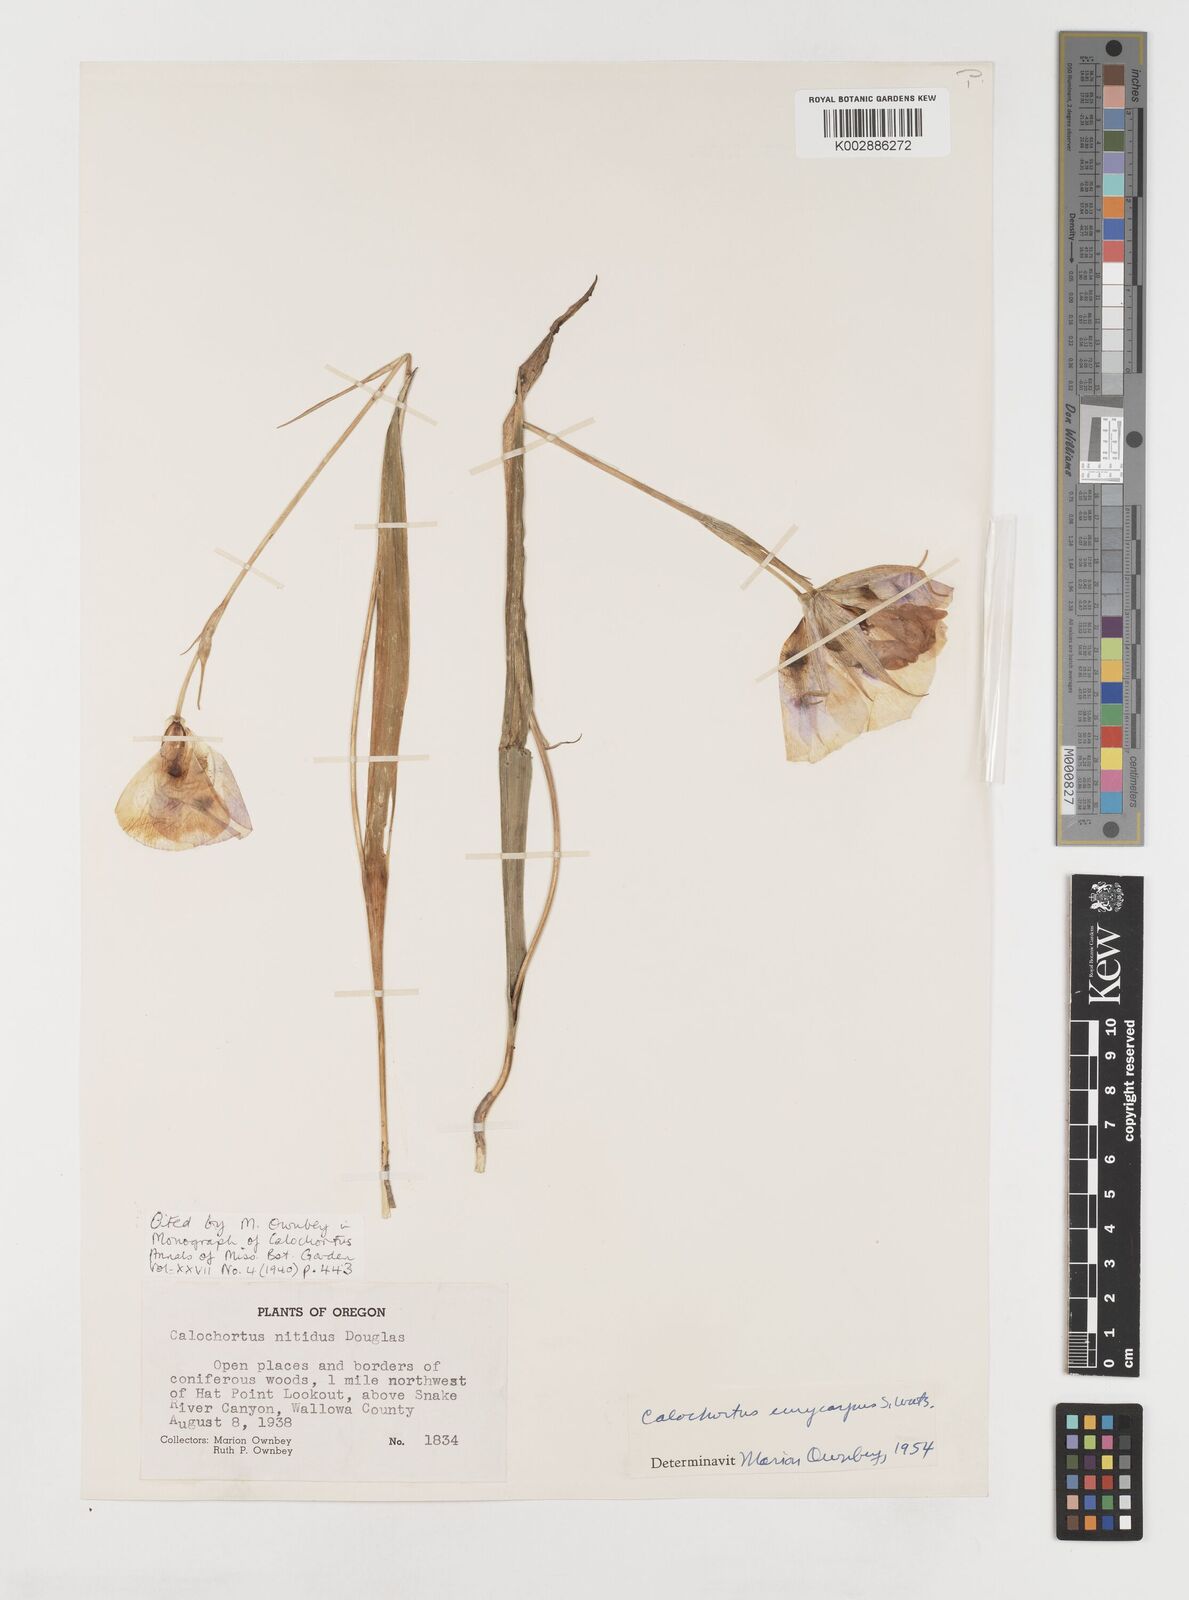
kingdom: Plantae
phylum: Tracheophyta
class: Liliopsida
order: Liliales
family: Liliaceae
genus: Calochortus
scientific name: Calochortus eurycarpus
